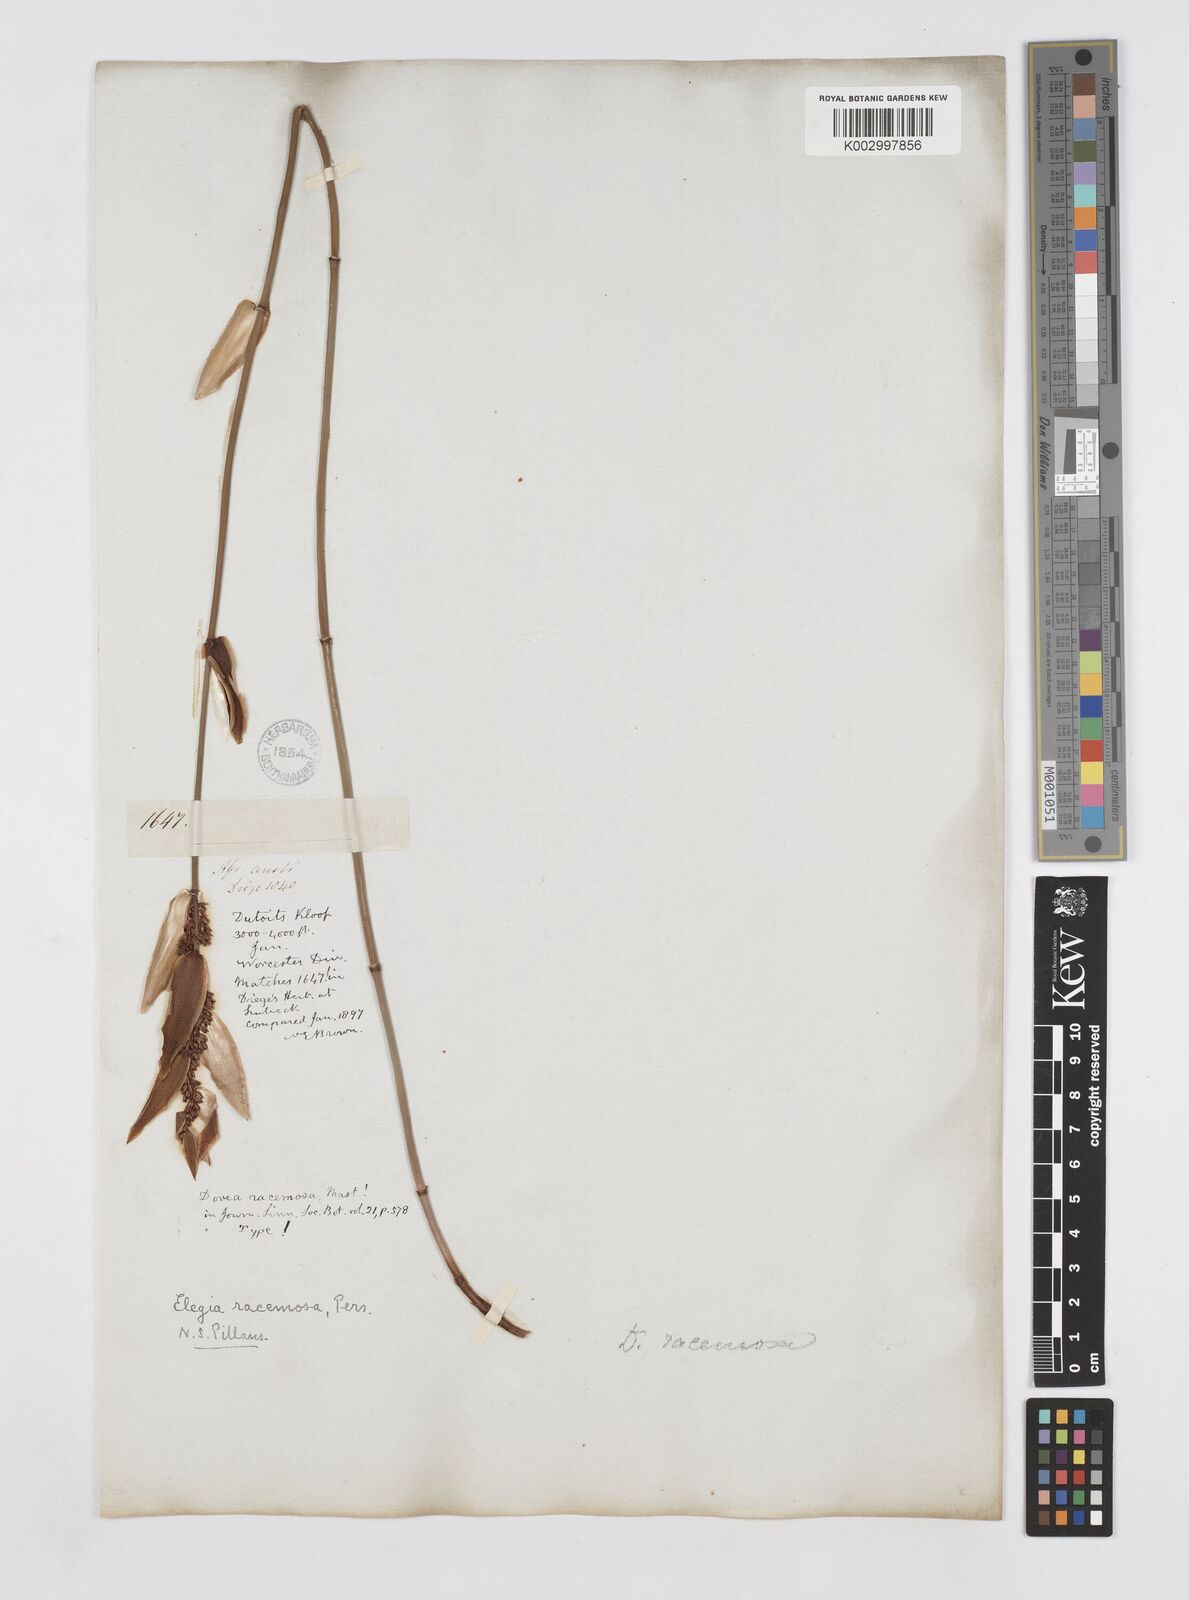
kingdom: Plantae
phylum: Tracheophyta
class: Liliopsida
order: Poales
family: Restionaceae
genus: Elegia
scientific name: Elegia racemosa
